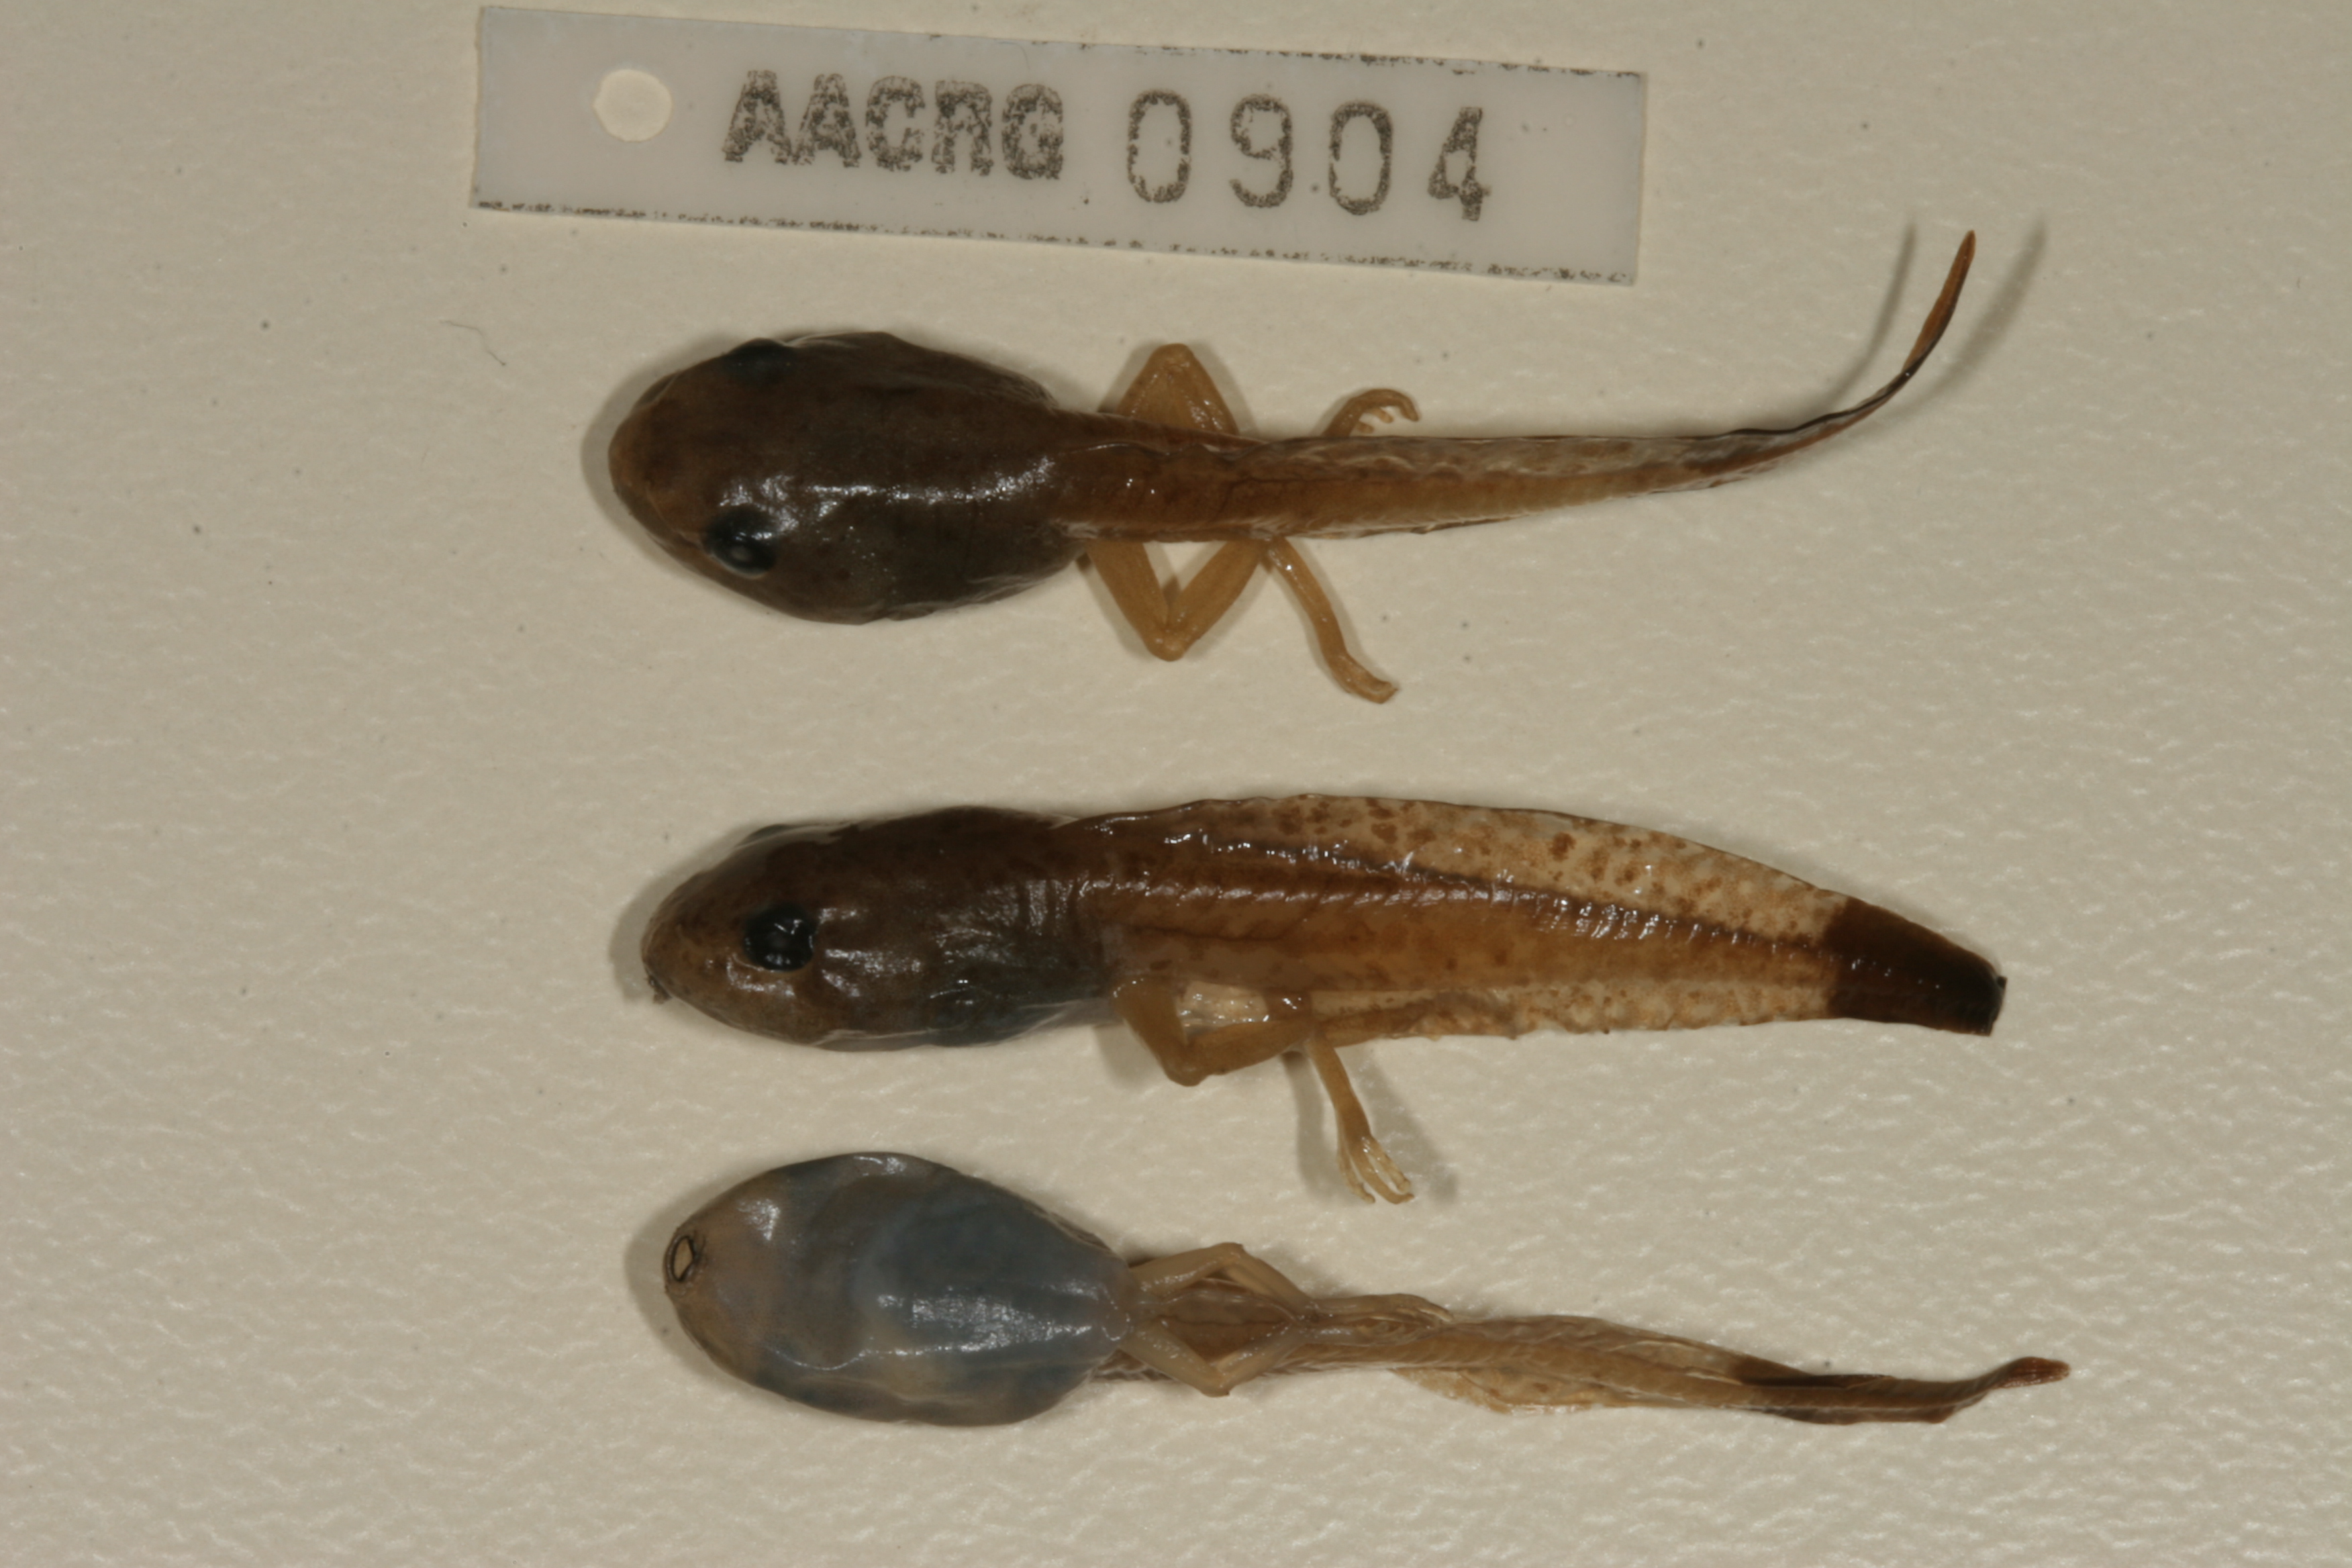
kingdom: Animalia
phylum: Chordata
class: Amphibia
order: Anura
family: Hyperoliidae
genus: Hyperolius
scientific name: Hyperolius marmoratus
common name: Painted reed frog
